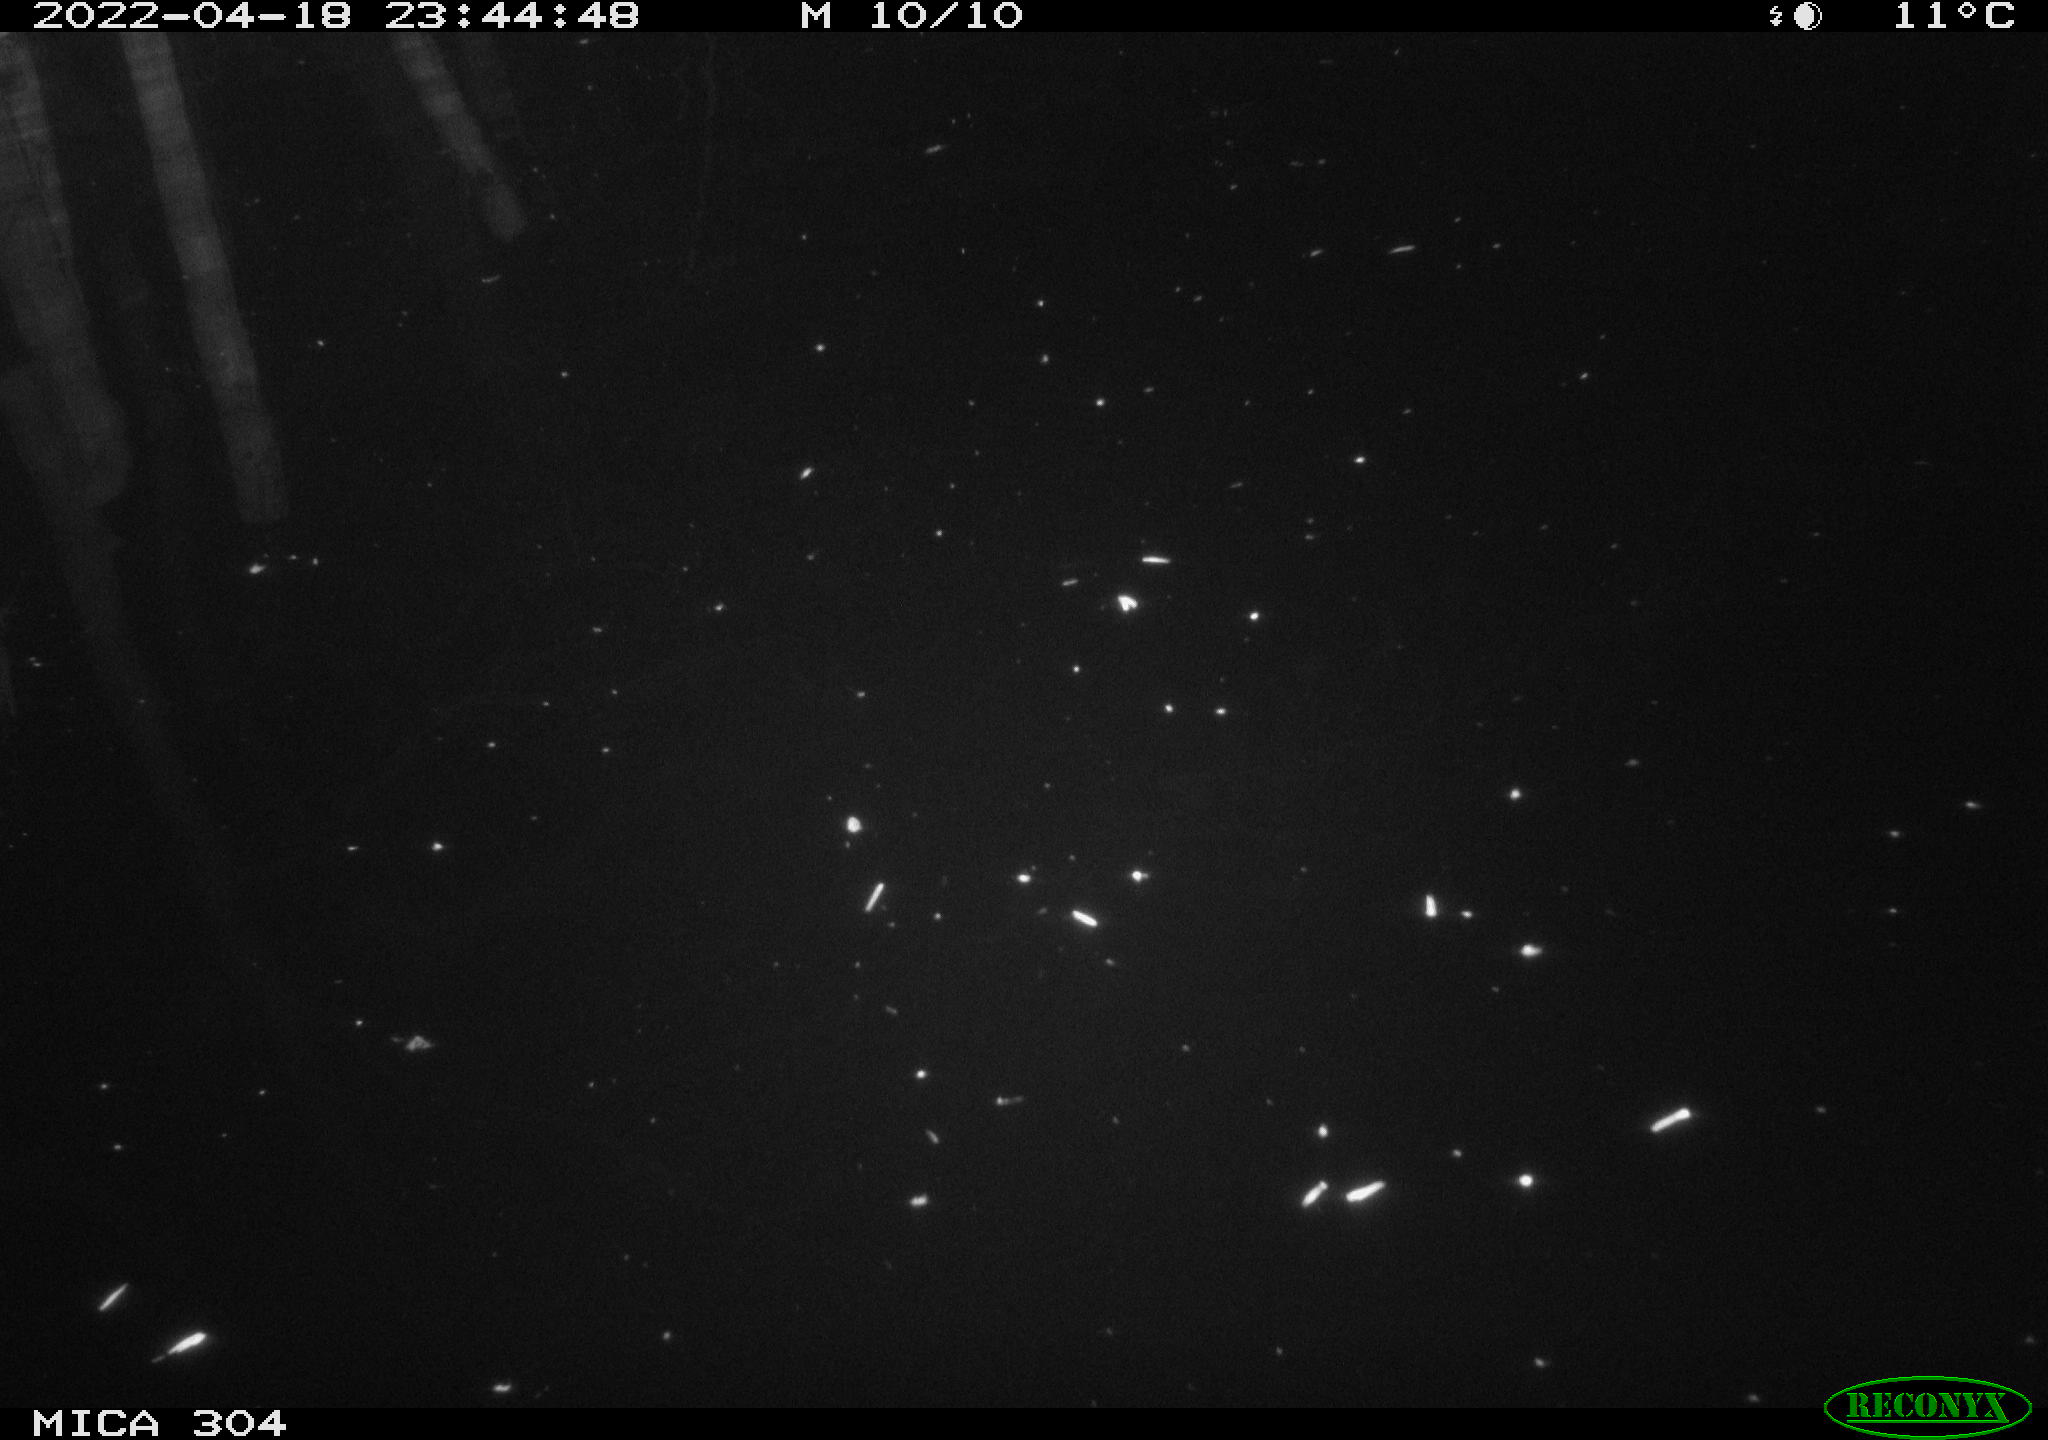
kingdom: Animalia
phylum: Chordata
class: Aves
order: Anseriformes
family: Anatidae
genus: Anas
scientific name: Anas platyrhynchos
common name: Mallard
